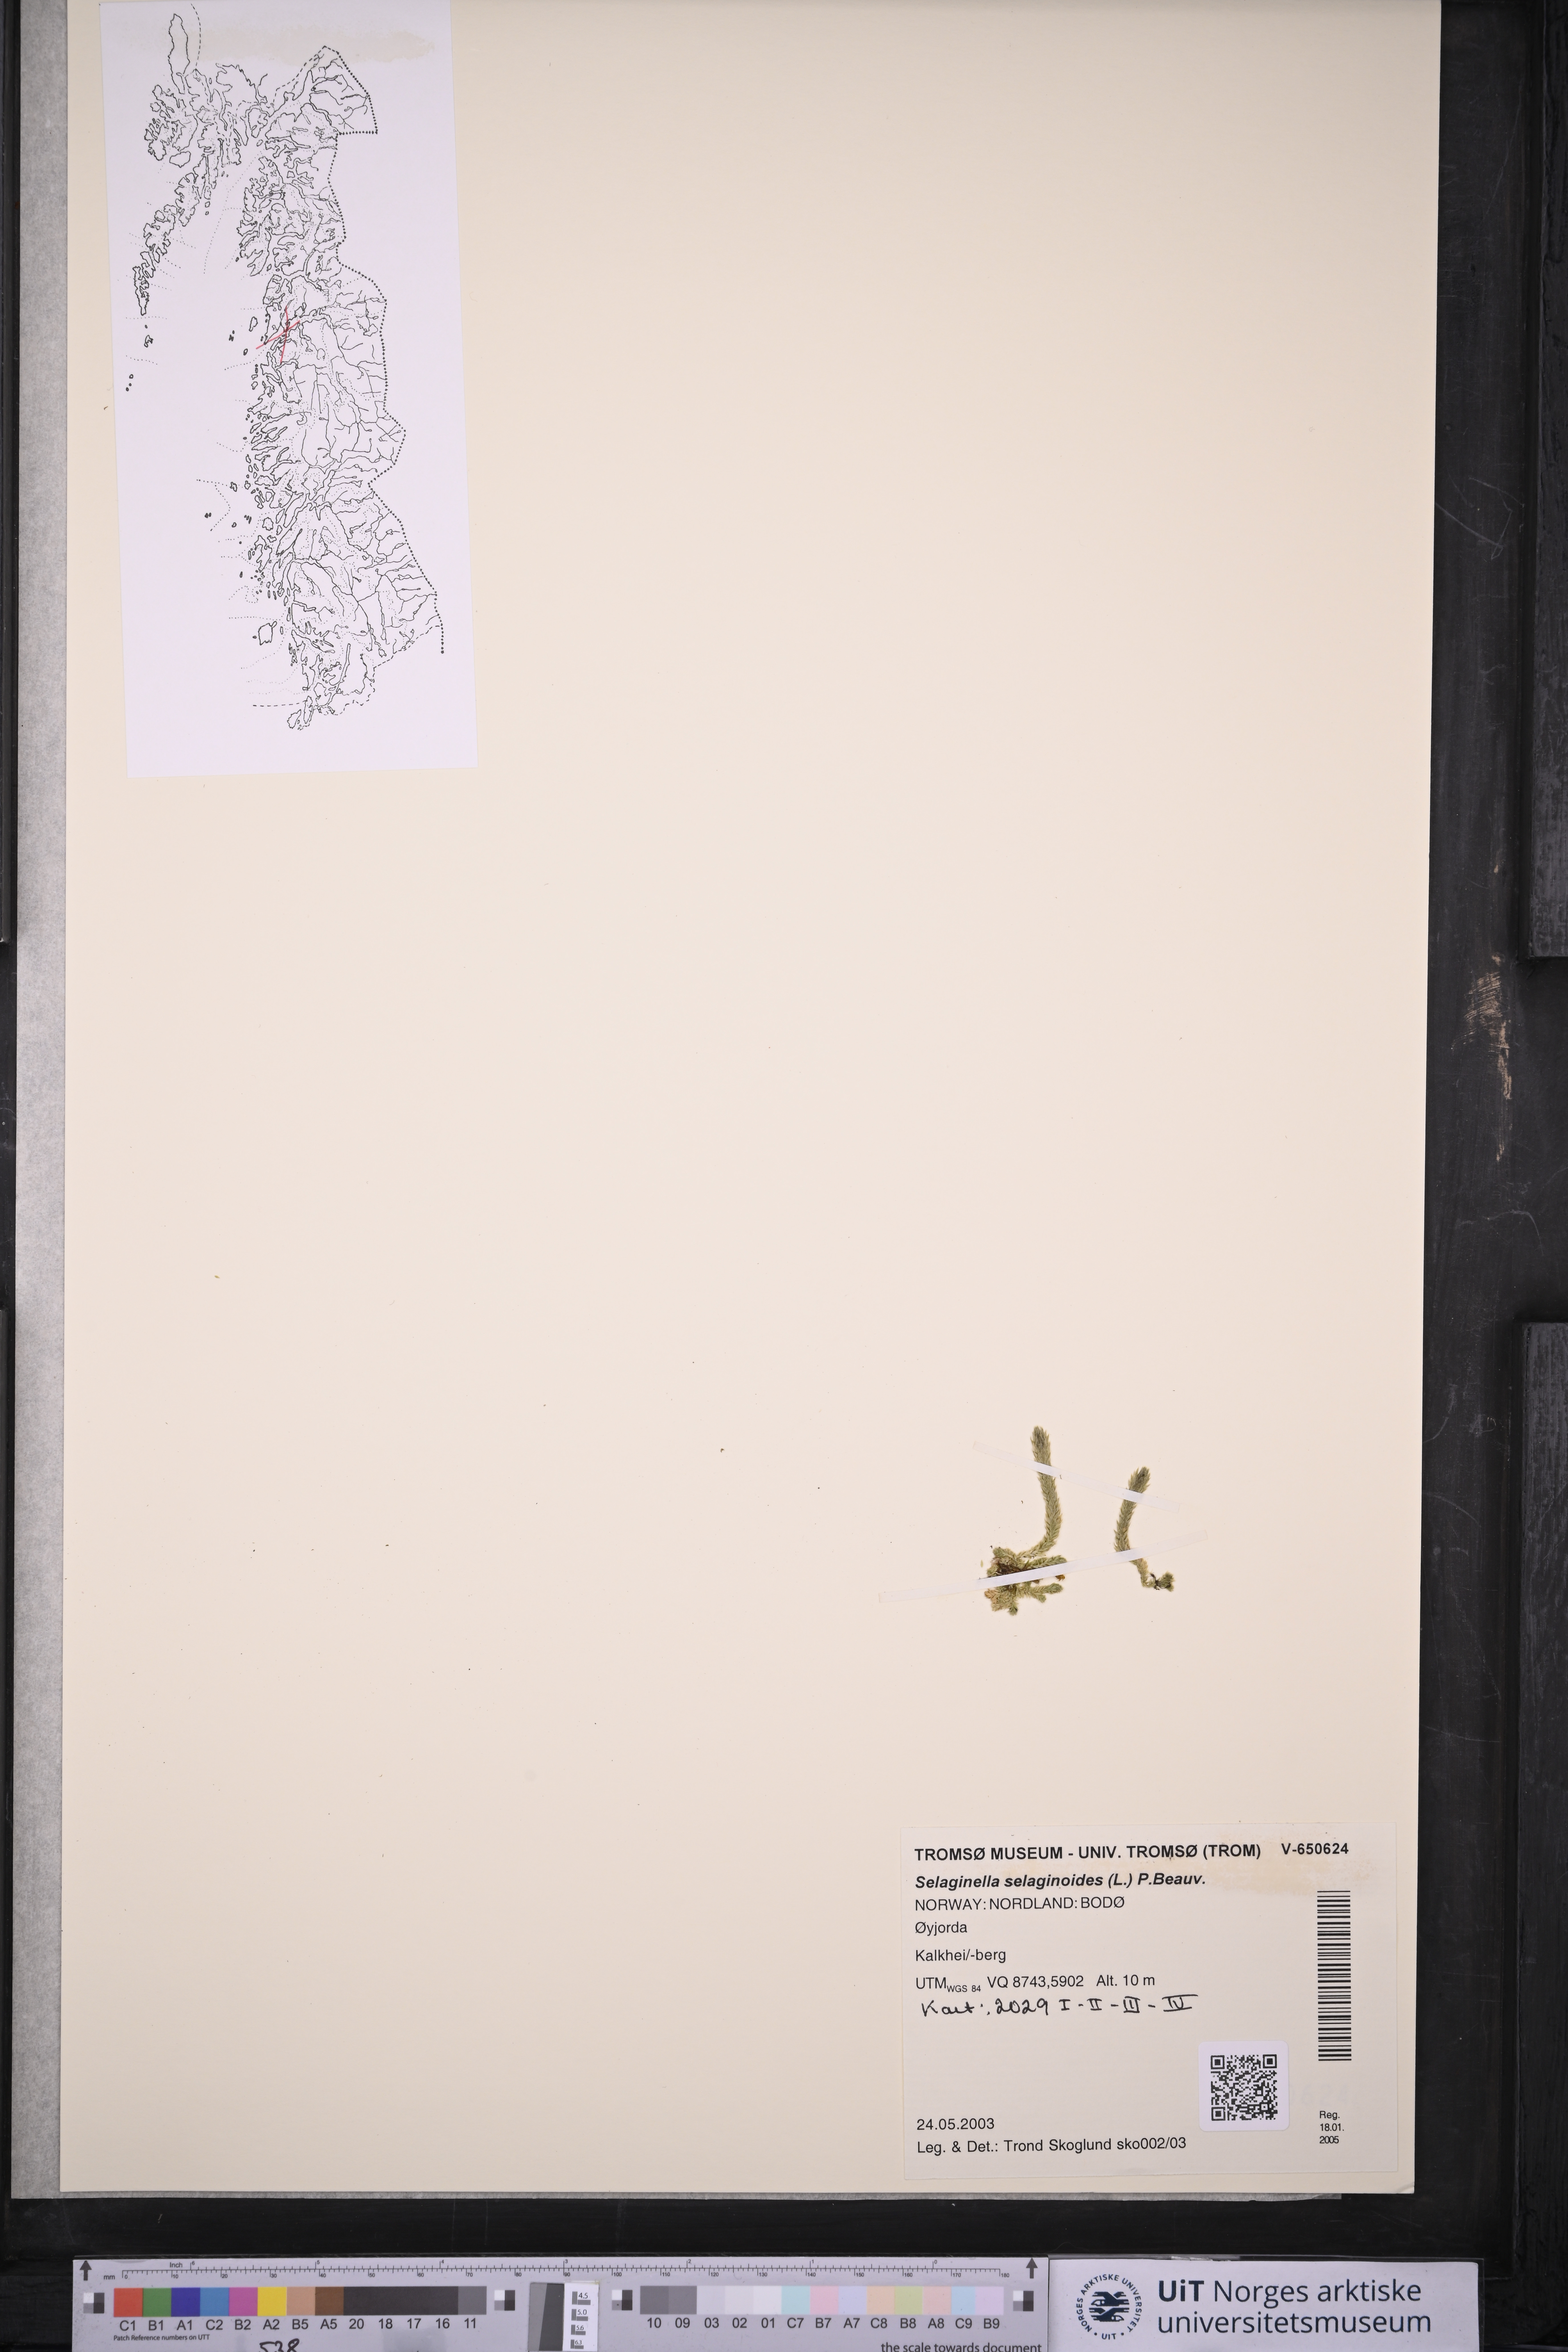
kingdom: Plantae
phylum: Tracheophyta
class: Lycopodiopsida
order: Selaginellales
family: Selaginellaceae
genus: Selaginella
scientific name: Selaginella selaginoides
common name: Prickly mountain-moss
